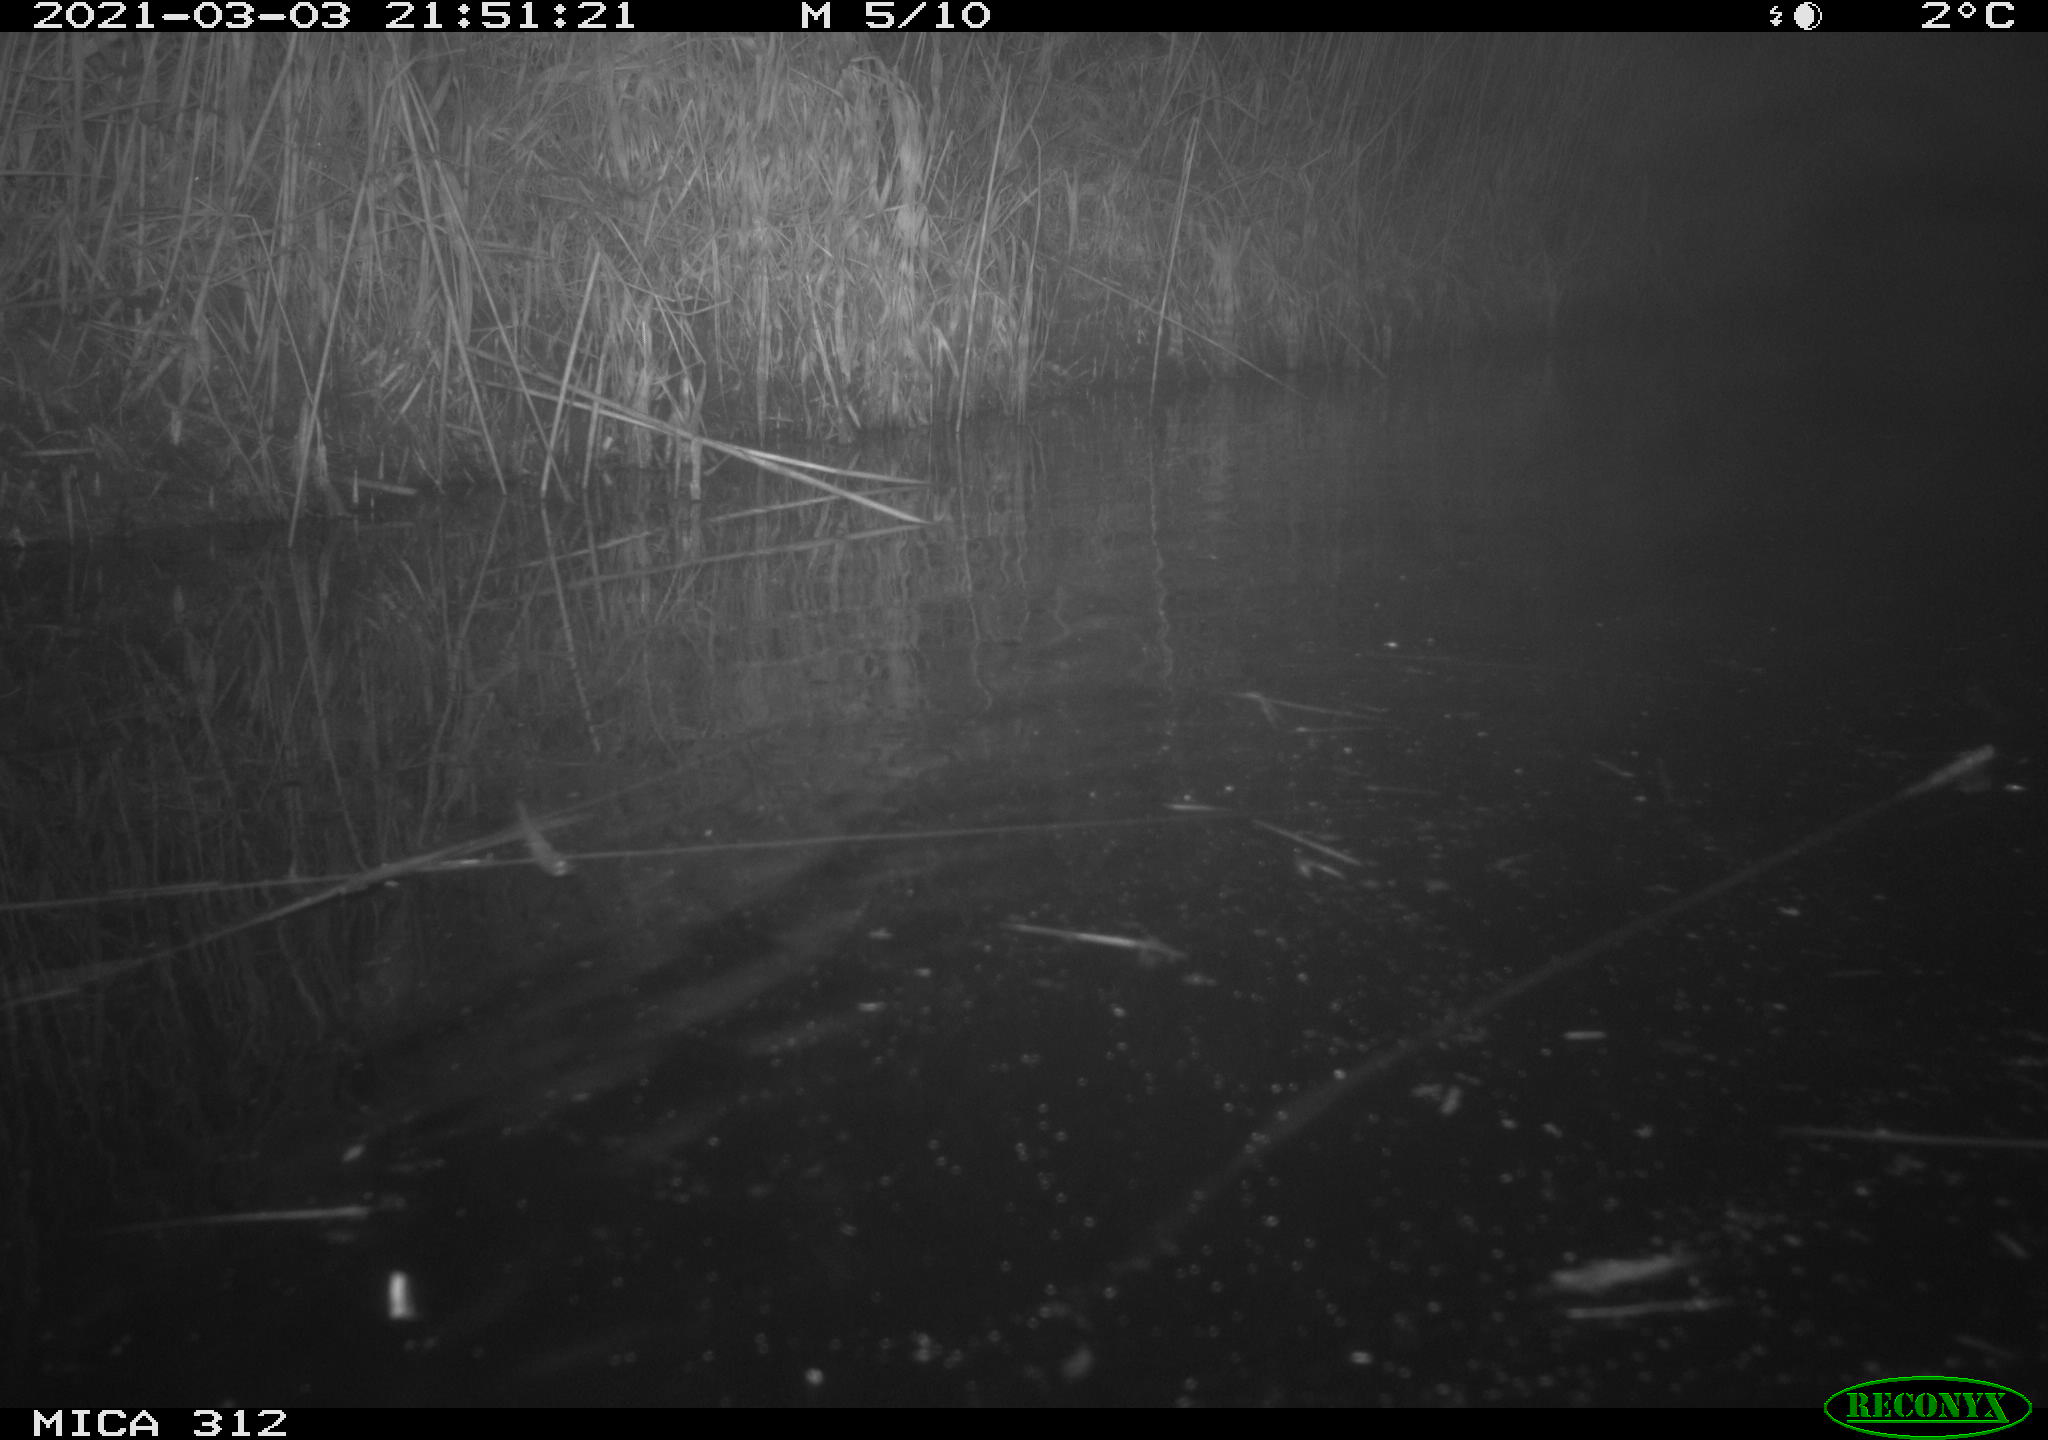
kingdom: Animalia
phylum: Chordata
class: Mammalia
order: Rodentia
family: Cricetidae
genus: Ondatra
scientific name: Ondatra zibethicus
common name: Muskrat
